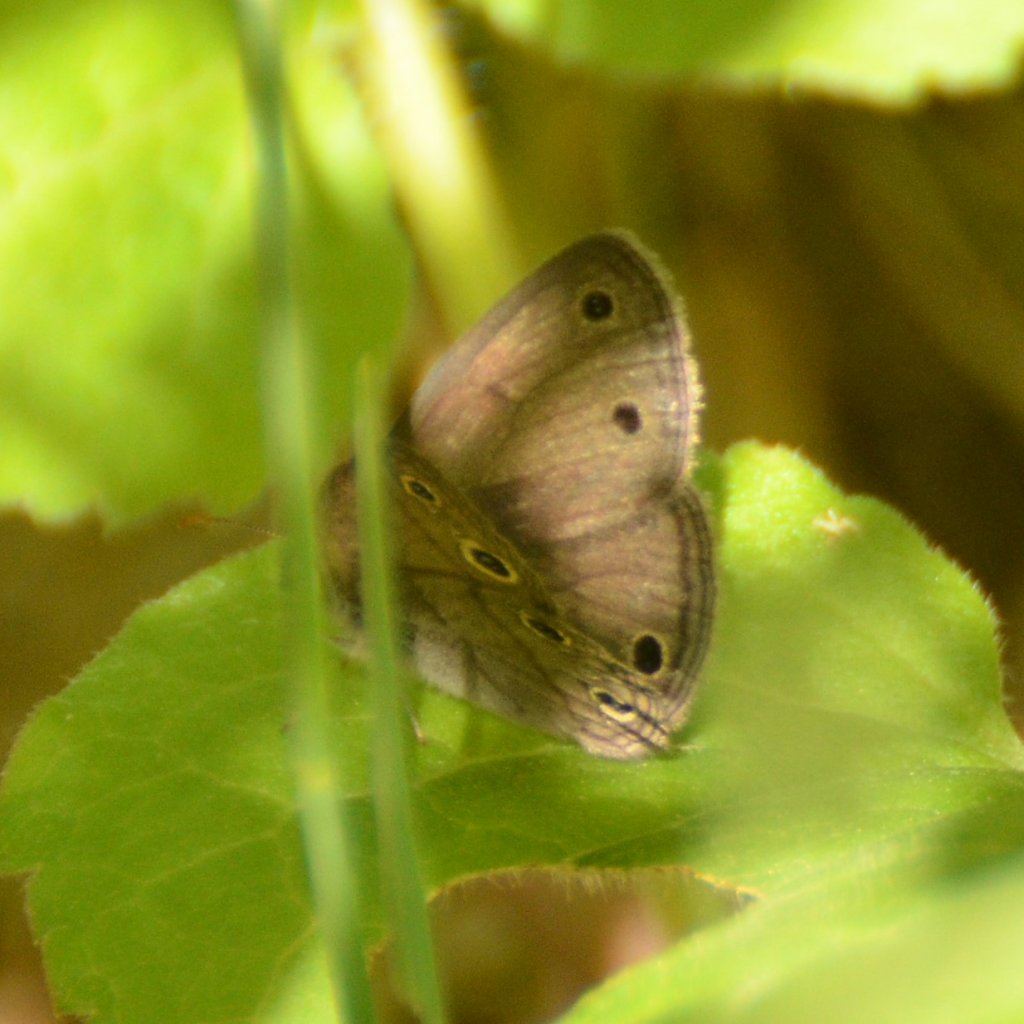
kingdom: Animalia
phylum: Arthropoda
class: Insecta
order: Lepidoptera
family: Nymphalidae
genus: Euptychia
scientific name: Euptychia cymela
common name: Little Wood Satyr
